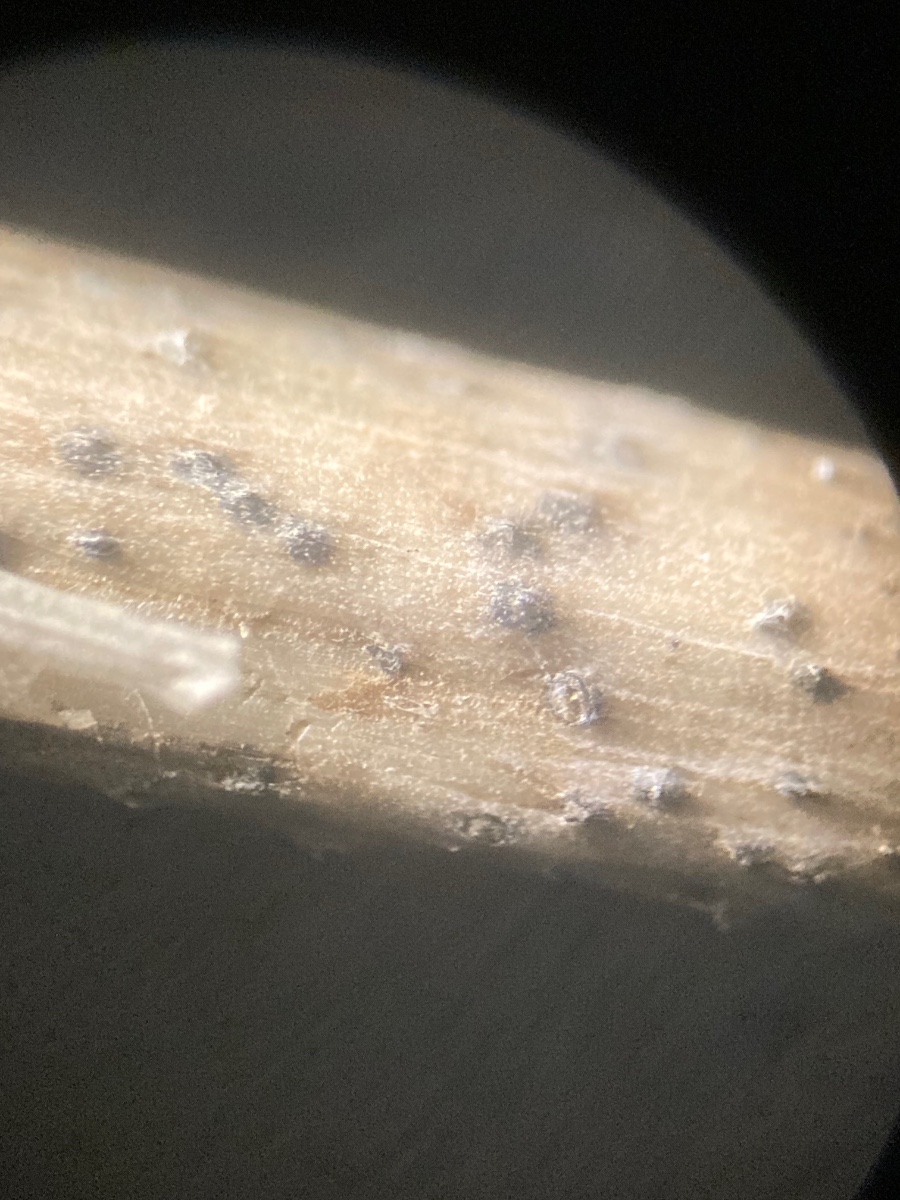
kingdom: Fungi
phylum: Ascomycota
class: Dothideomycetes
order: Pleosporales
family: Pleosporaceae
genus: Stemphylium
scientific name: Stemphylium vesicarium
